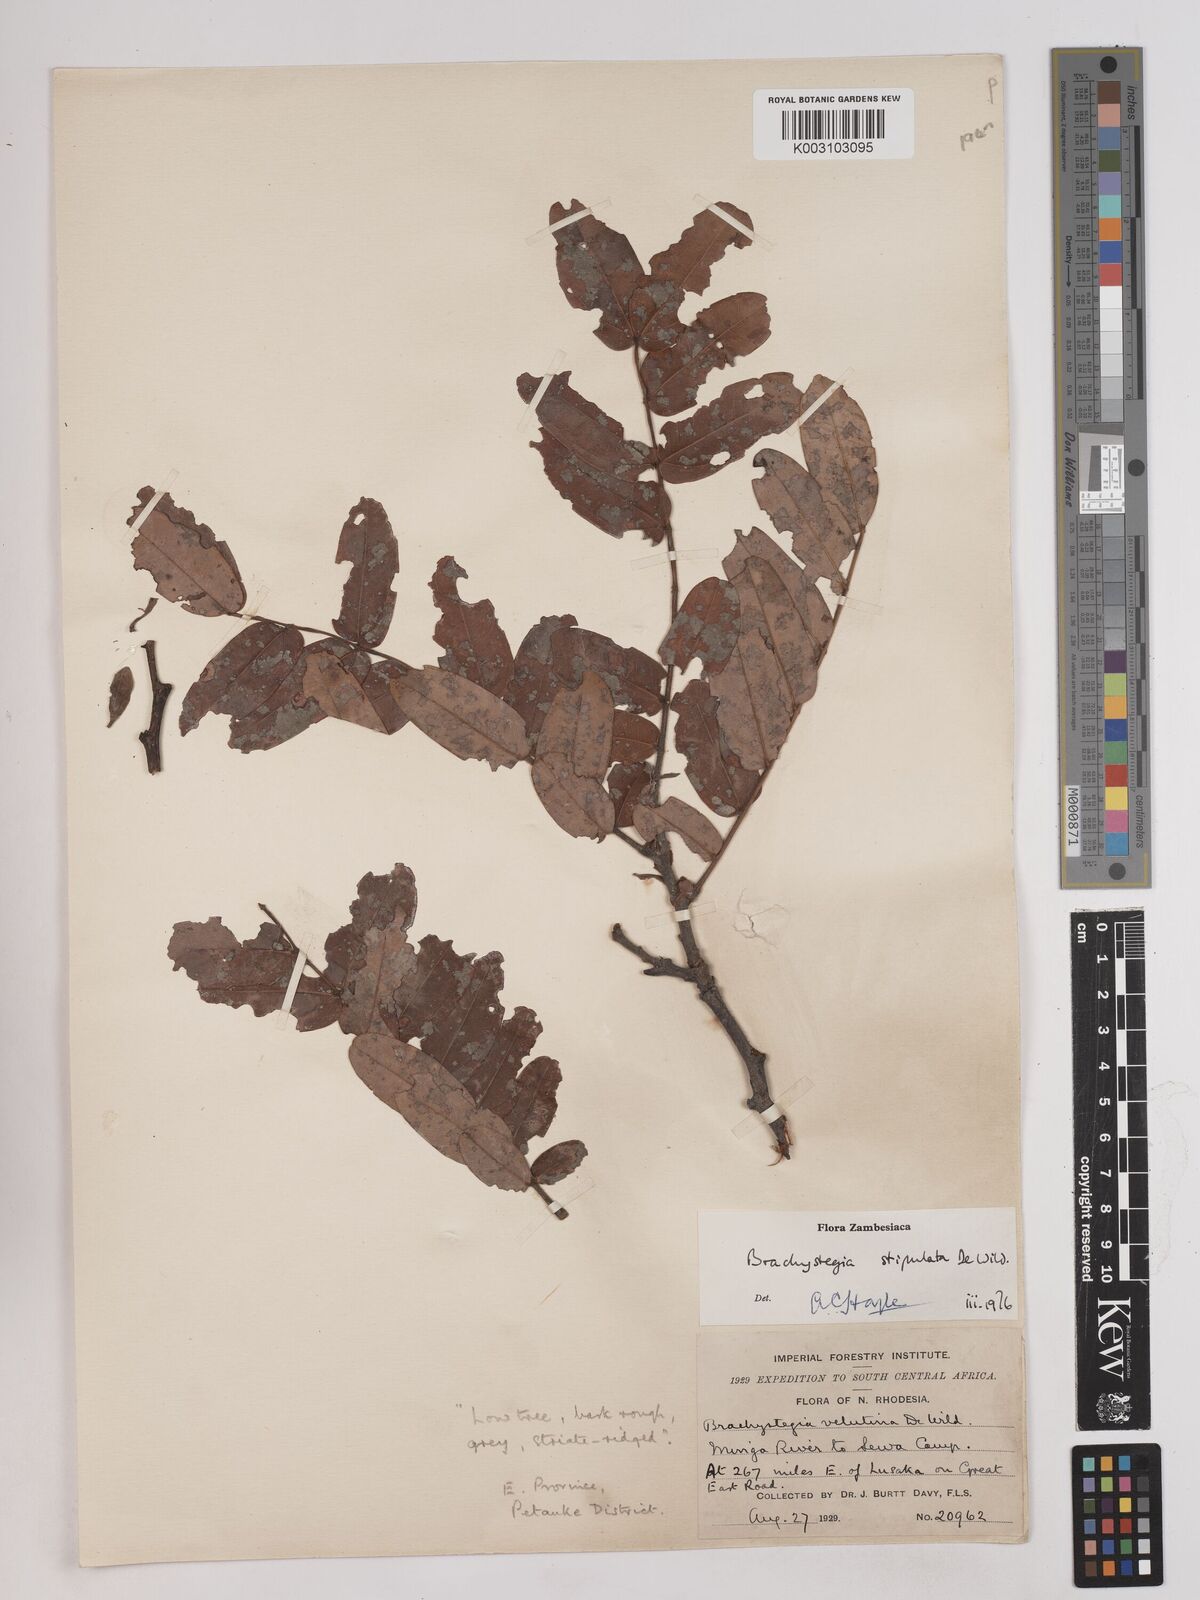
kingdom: Plantae
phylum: Tracheophyta
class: Magnoliopsida
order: Fabales
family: Fabaceae
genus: Brachystegia
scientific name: Brachystegia stipulata
